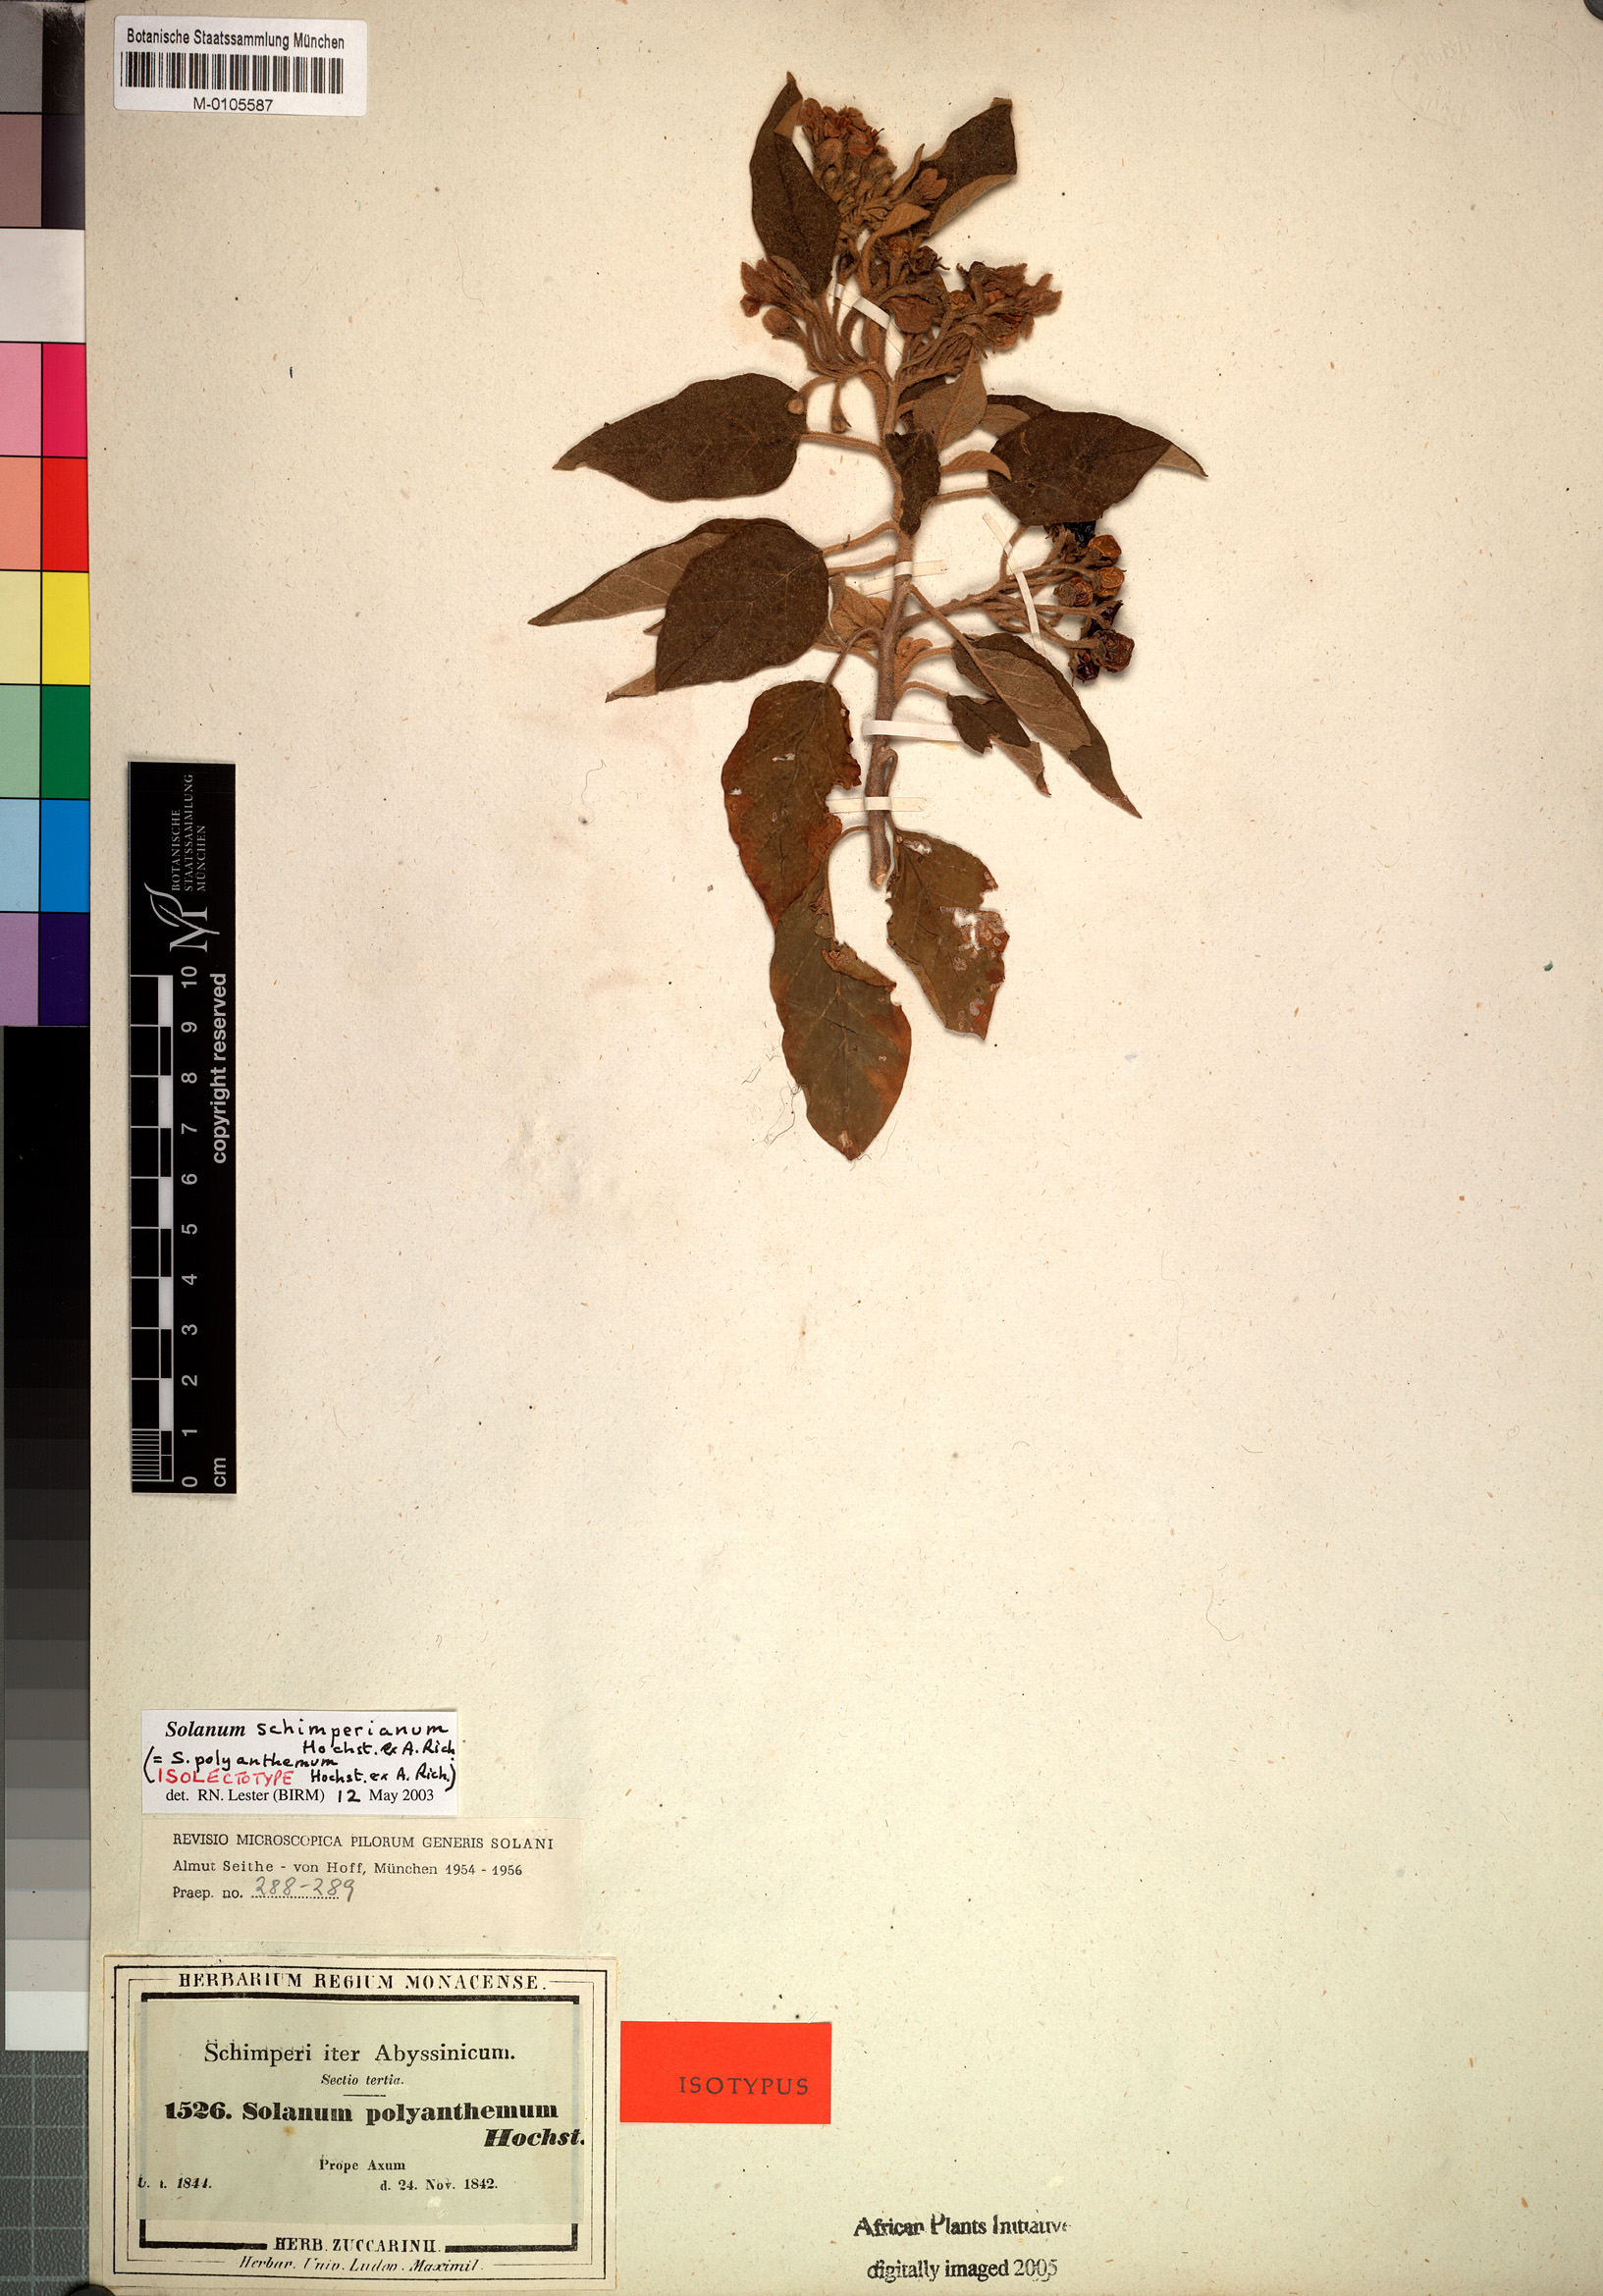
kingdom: Plantae
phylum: Tracheophyta
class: Magnoliopsida
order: Solanales
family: Solanaceae
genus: Solanum
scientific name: Solanum schimperianum
